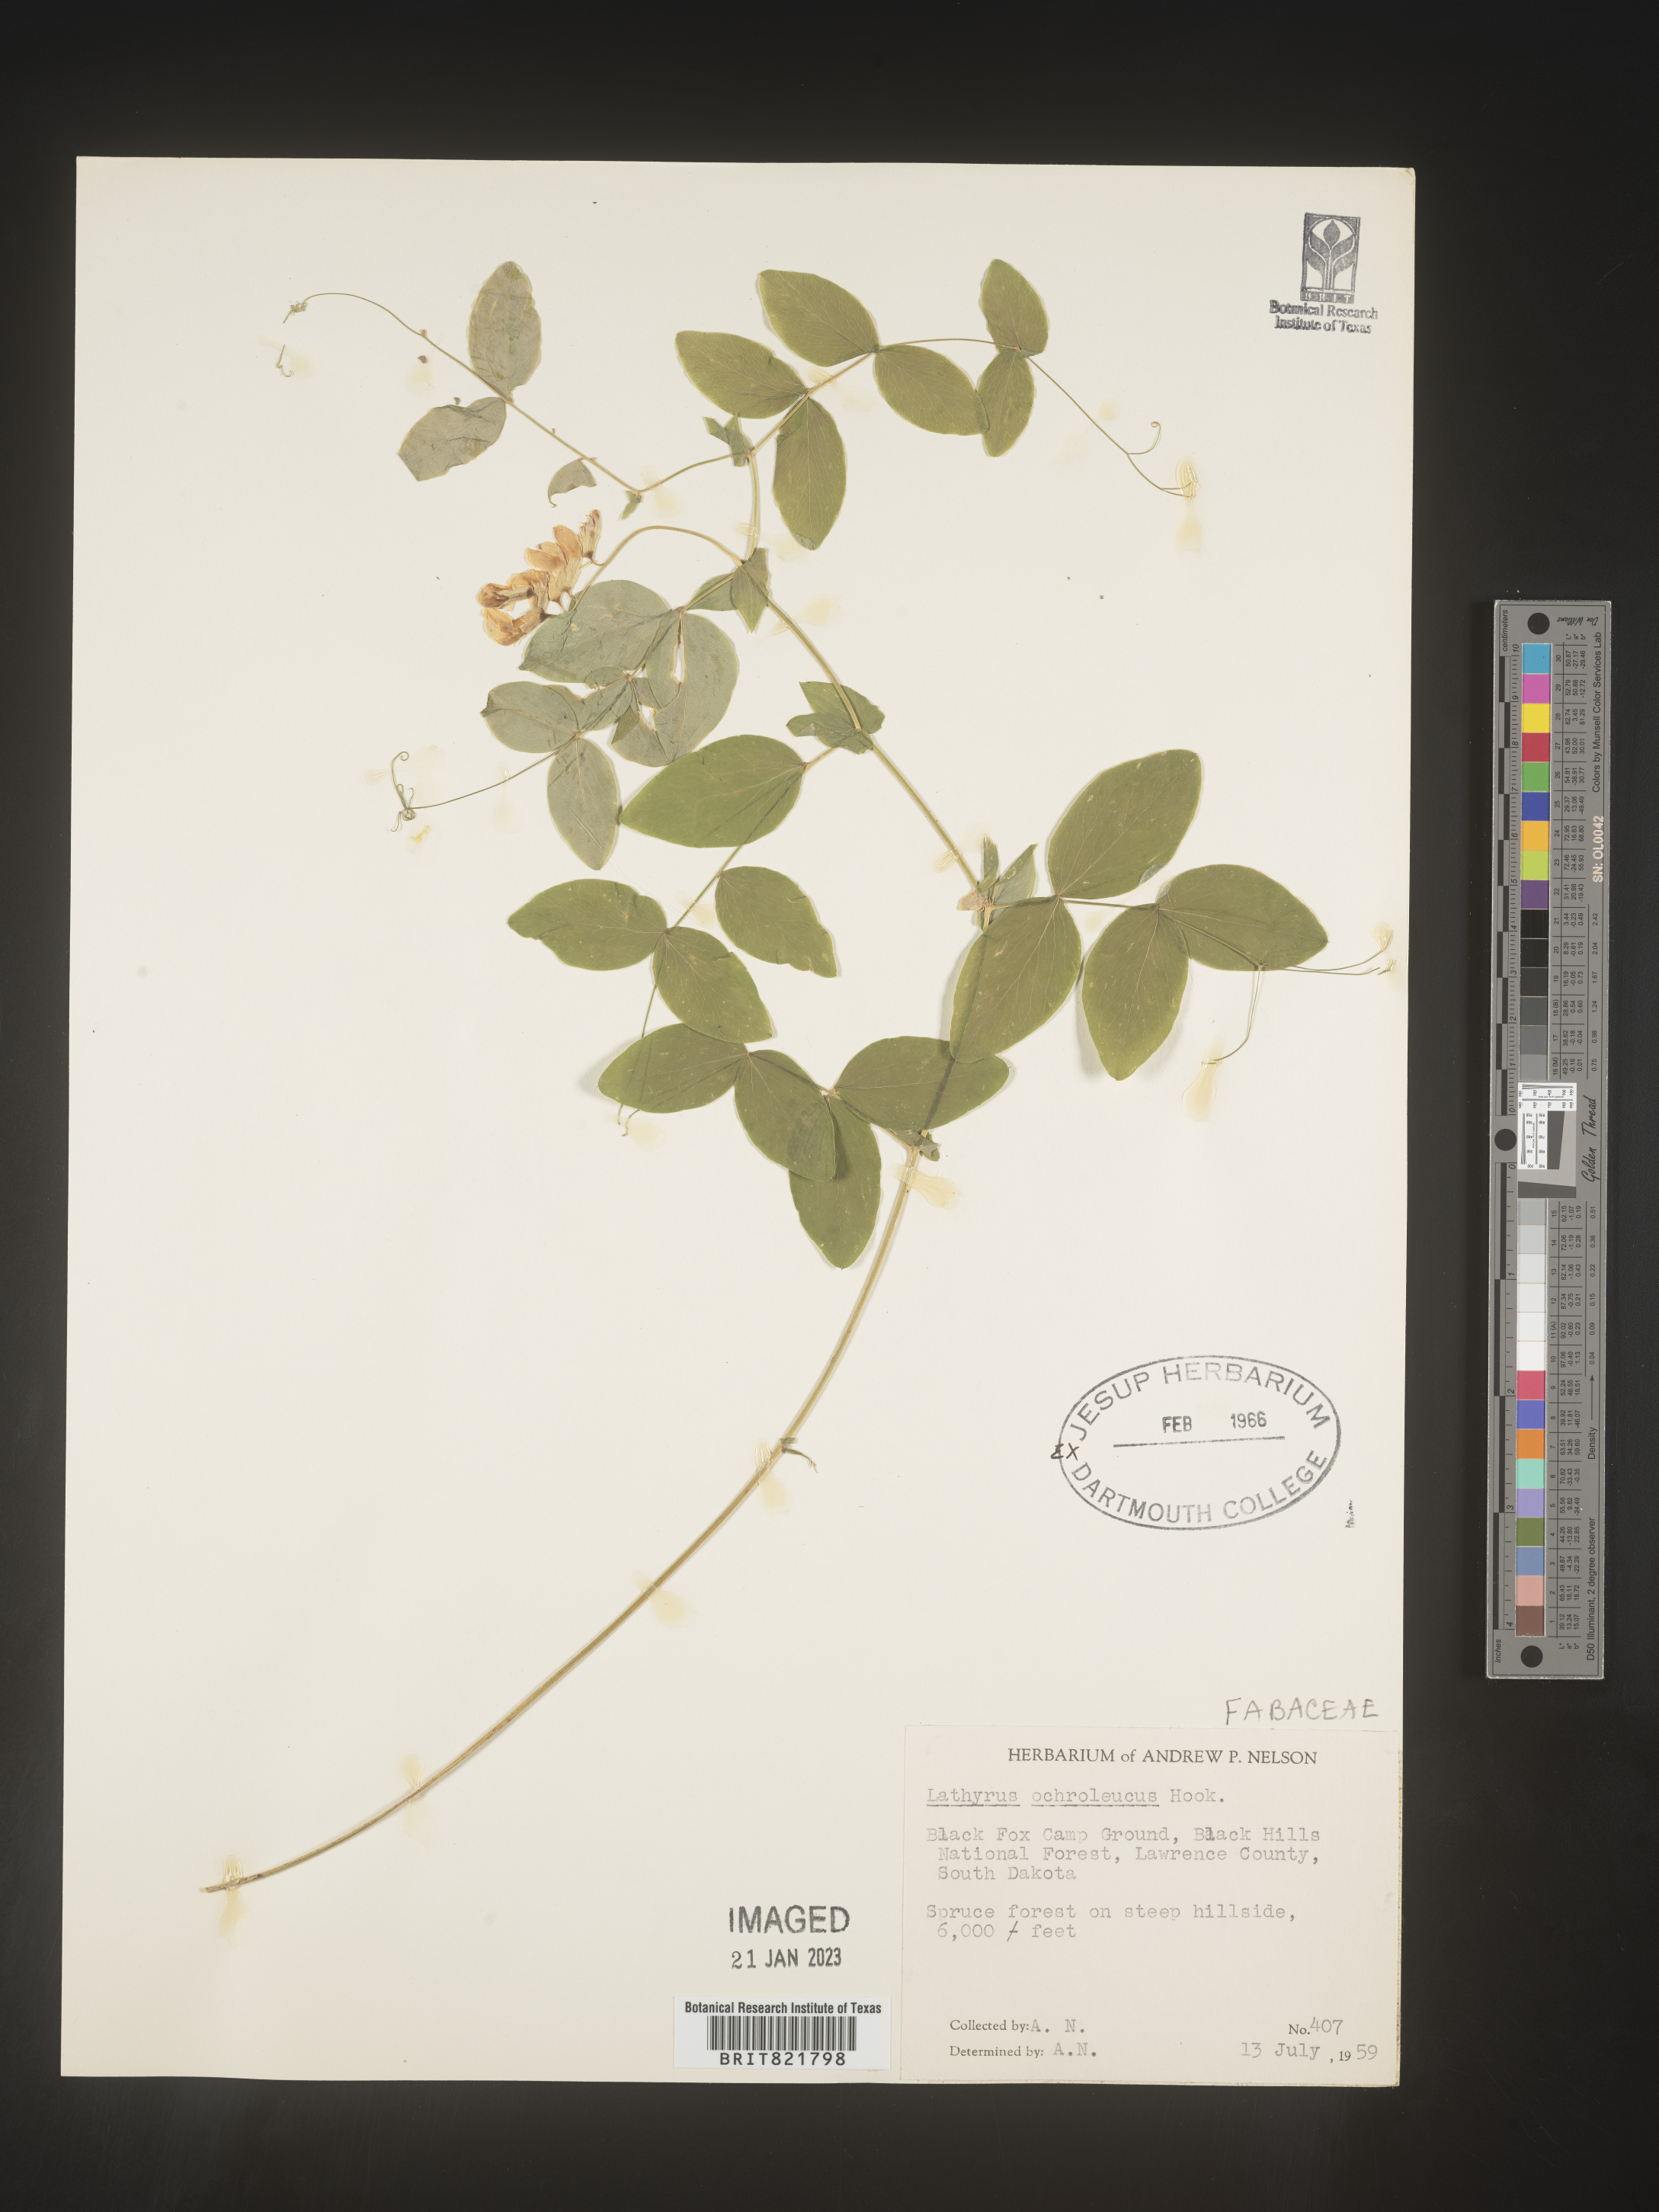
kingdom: Plantae
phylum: Tracheophyta
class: Magnoliopsida
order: Fabales
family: Fabaceae
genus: Lathyrus
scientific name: Lathyrus
